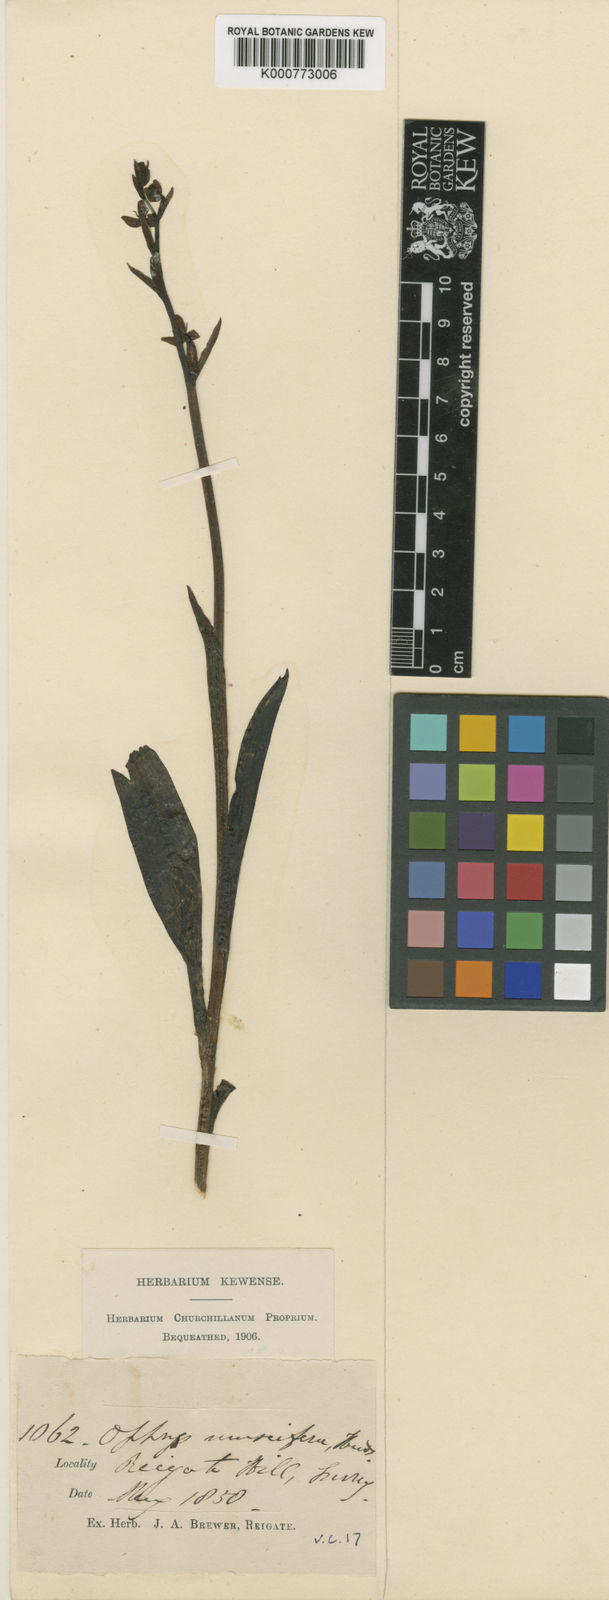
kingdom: Plantae
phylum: Tracheophyta
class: Liliopsida
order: Asparagales
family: Orchidaceae
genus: Ophrys
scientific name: Ophrys insectifera
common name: Fly orchid
